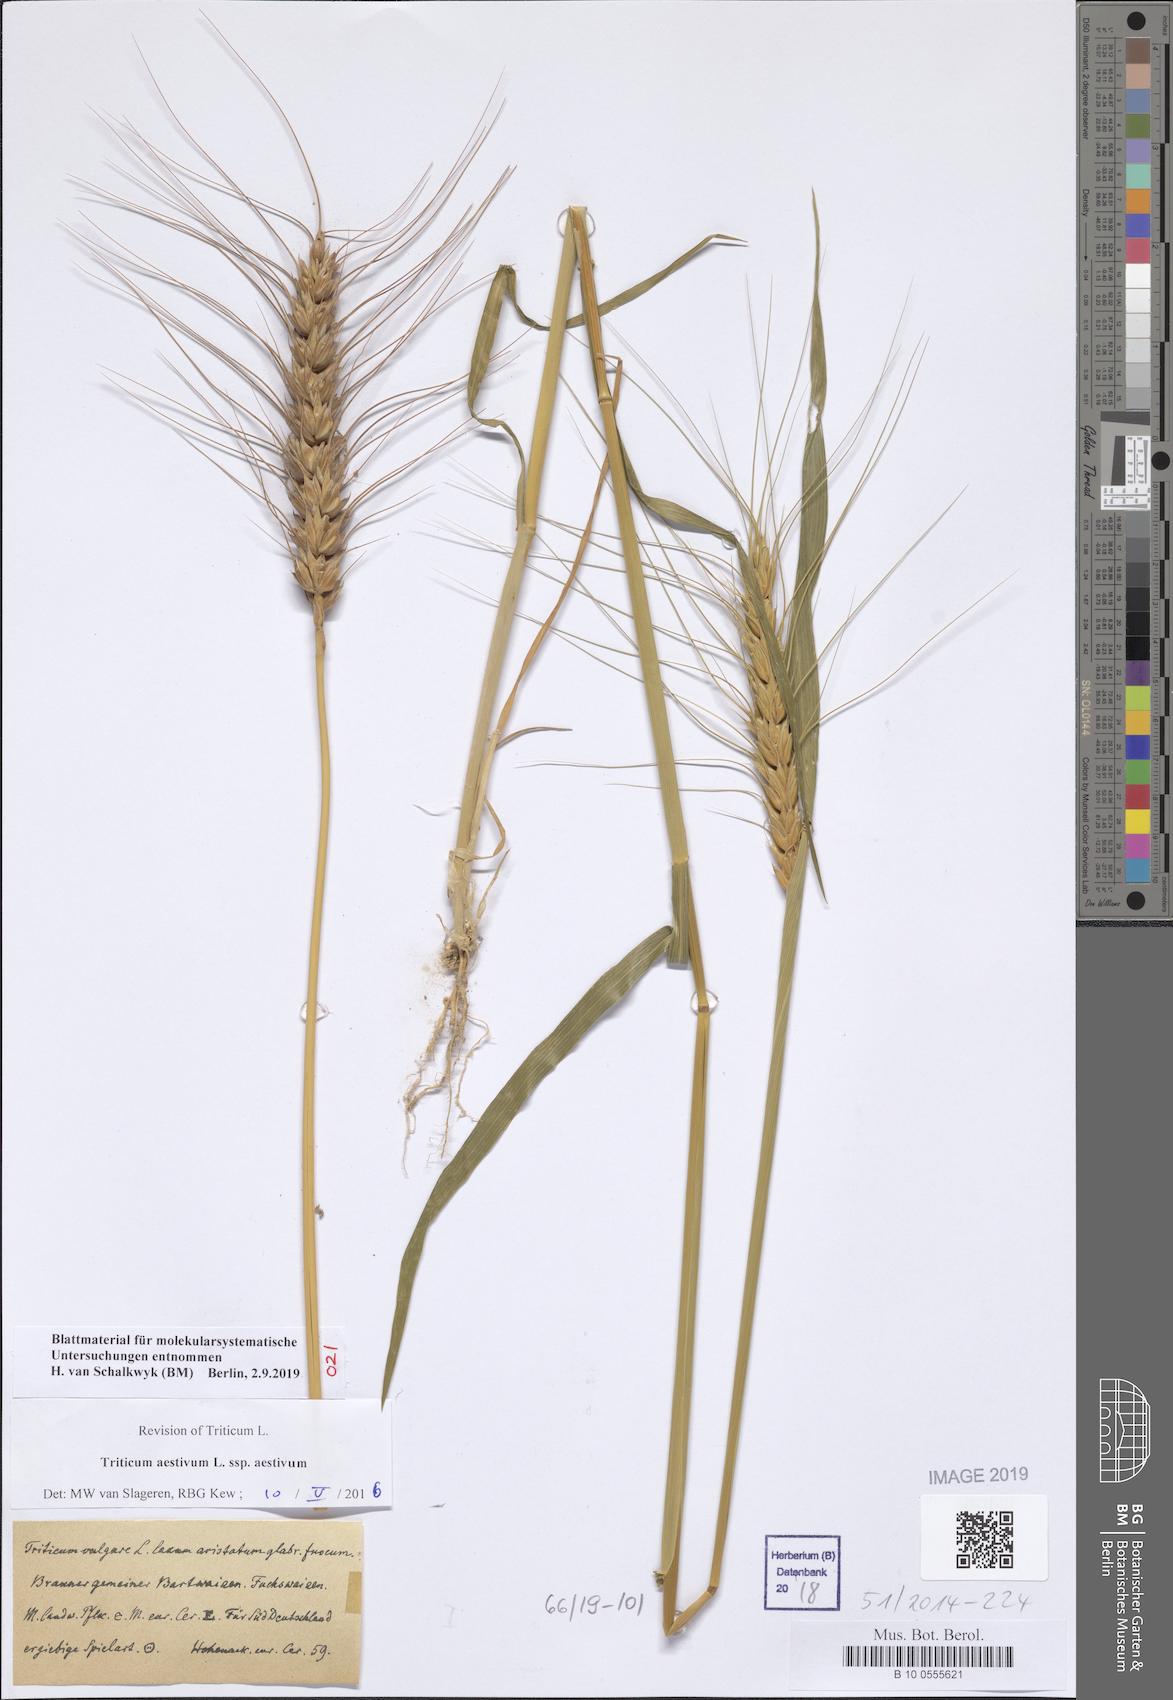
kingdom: Plantae
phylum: Tracheophyta
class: Liliopsida
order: Poales
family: Poaceae
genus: Triticum
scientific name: Triticum aestivum
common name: Common wheat
